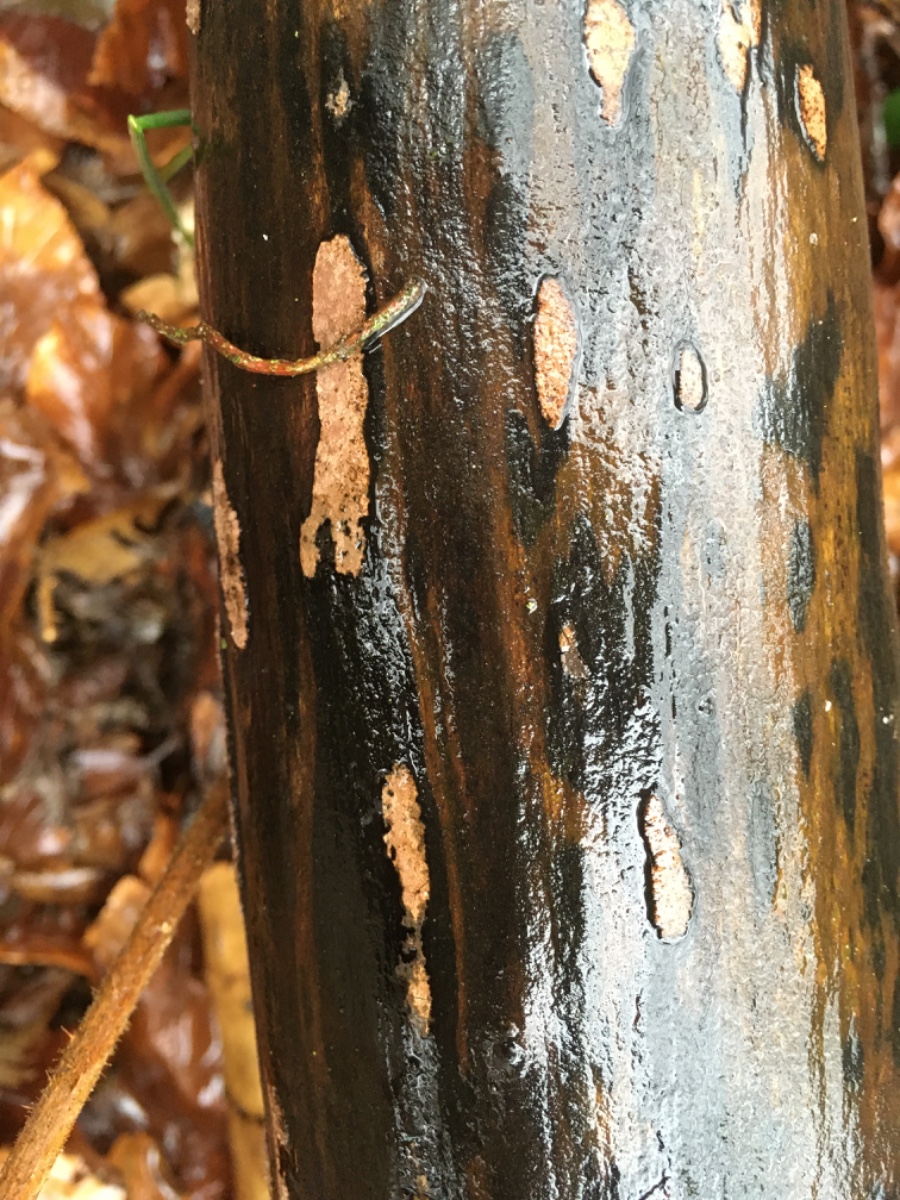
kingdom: Fungi
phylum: Ascomycota
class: Sordariomycetes
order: Xylariales
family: Hypoxylaceae
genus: Hypoxylon
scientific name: Hypoxylon petriniae
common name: nedsænket kulbær
